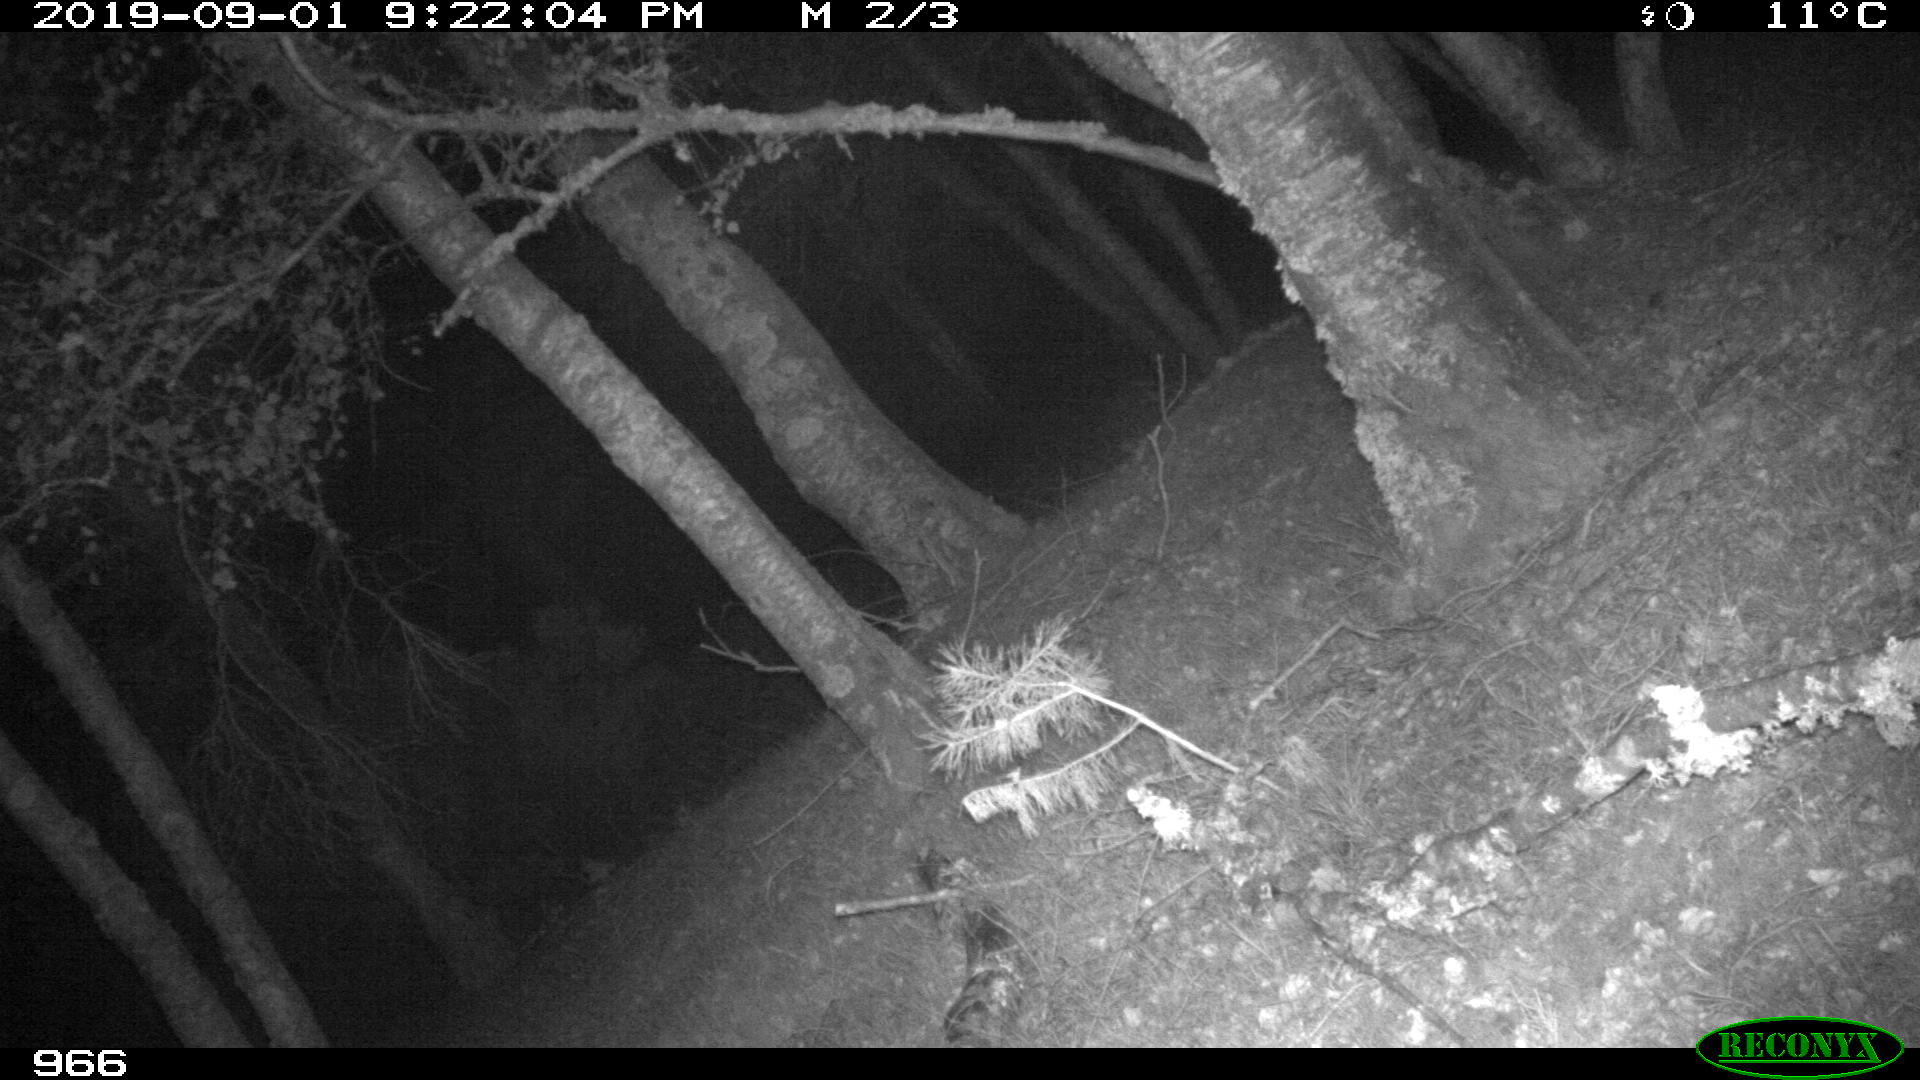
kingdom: Animalia
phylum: Chordata
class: Mammalia
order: Artiodactyla
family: Cervidae
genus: Capreolus
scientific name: Capreolus capreolus
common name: Western roe deer
